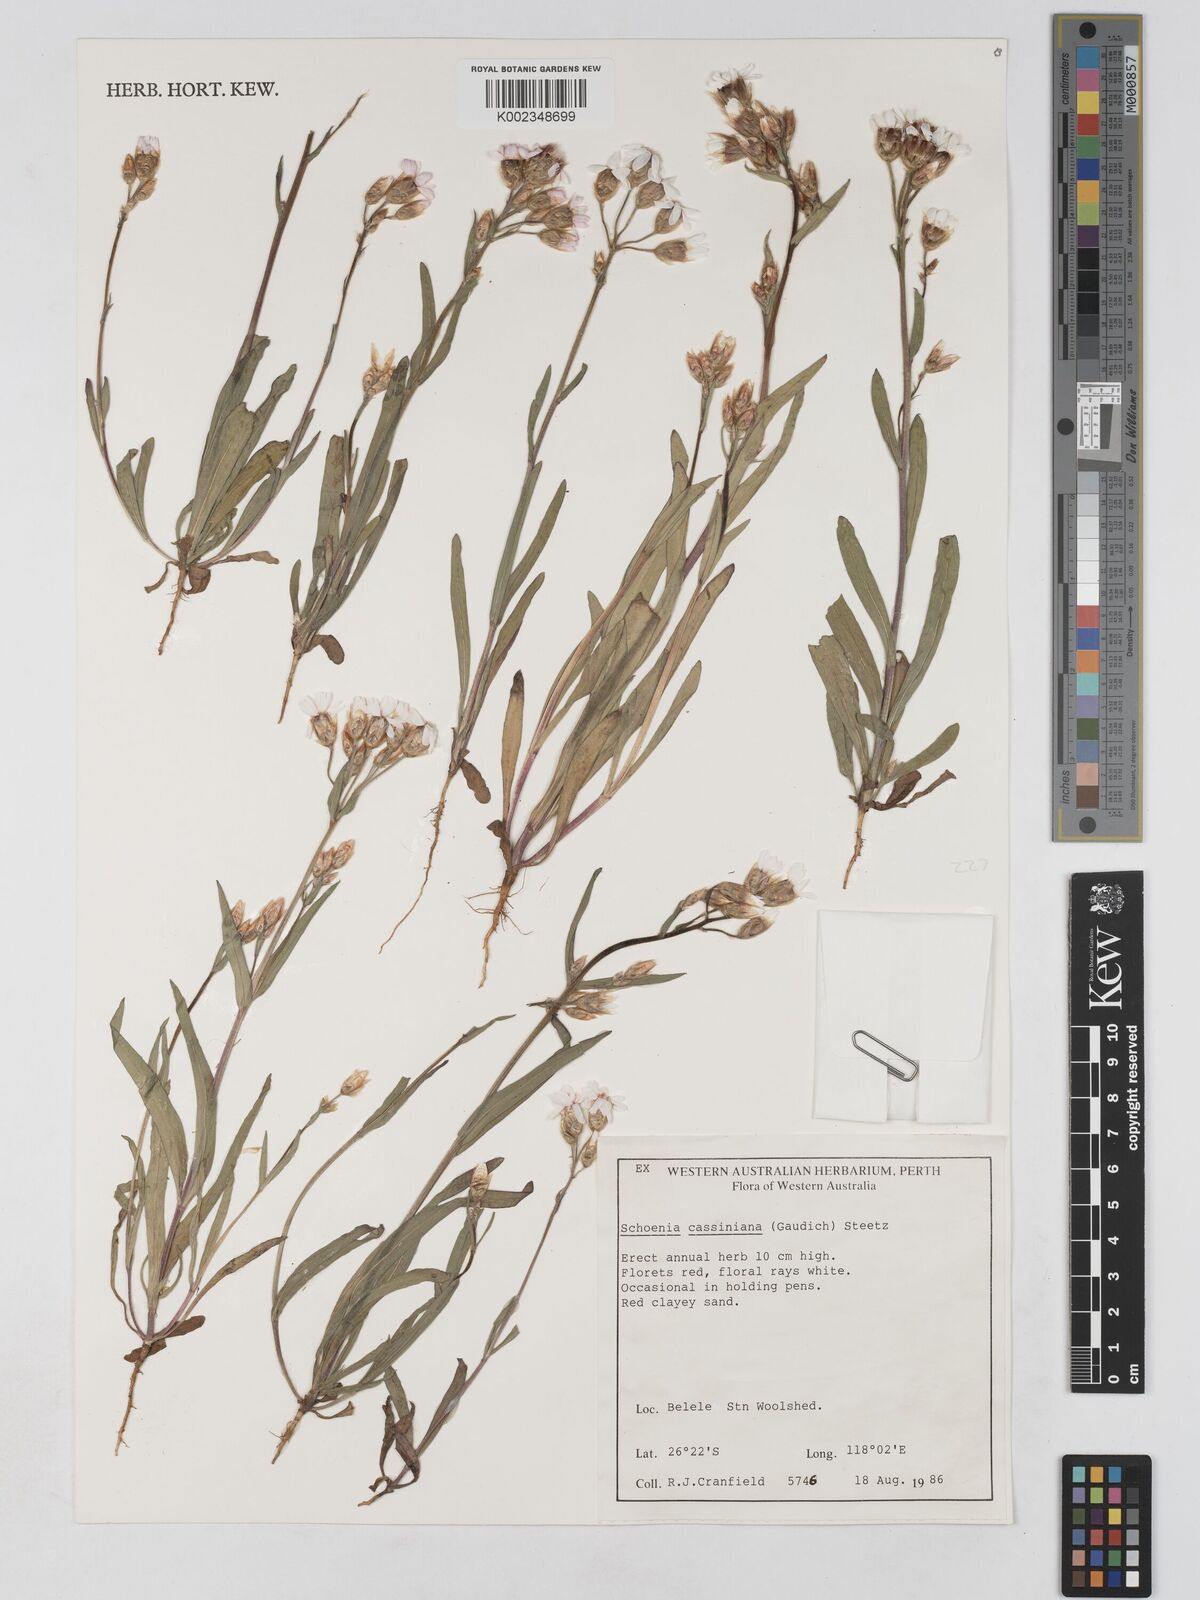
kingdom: Plantae
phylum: Tracheophyta
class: Magnoliopsida
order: Asterales
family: Asteraceae
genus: Schoenia
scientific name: Schoenia cassiniana
